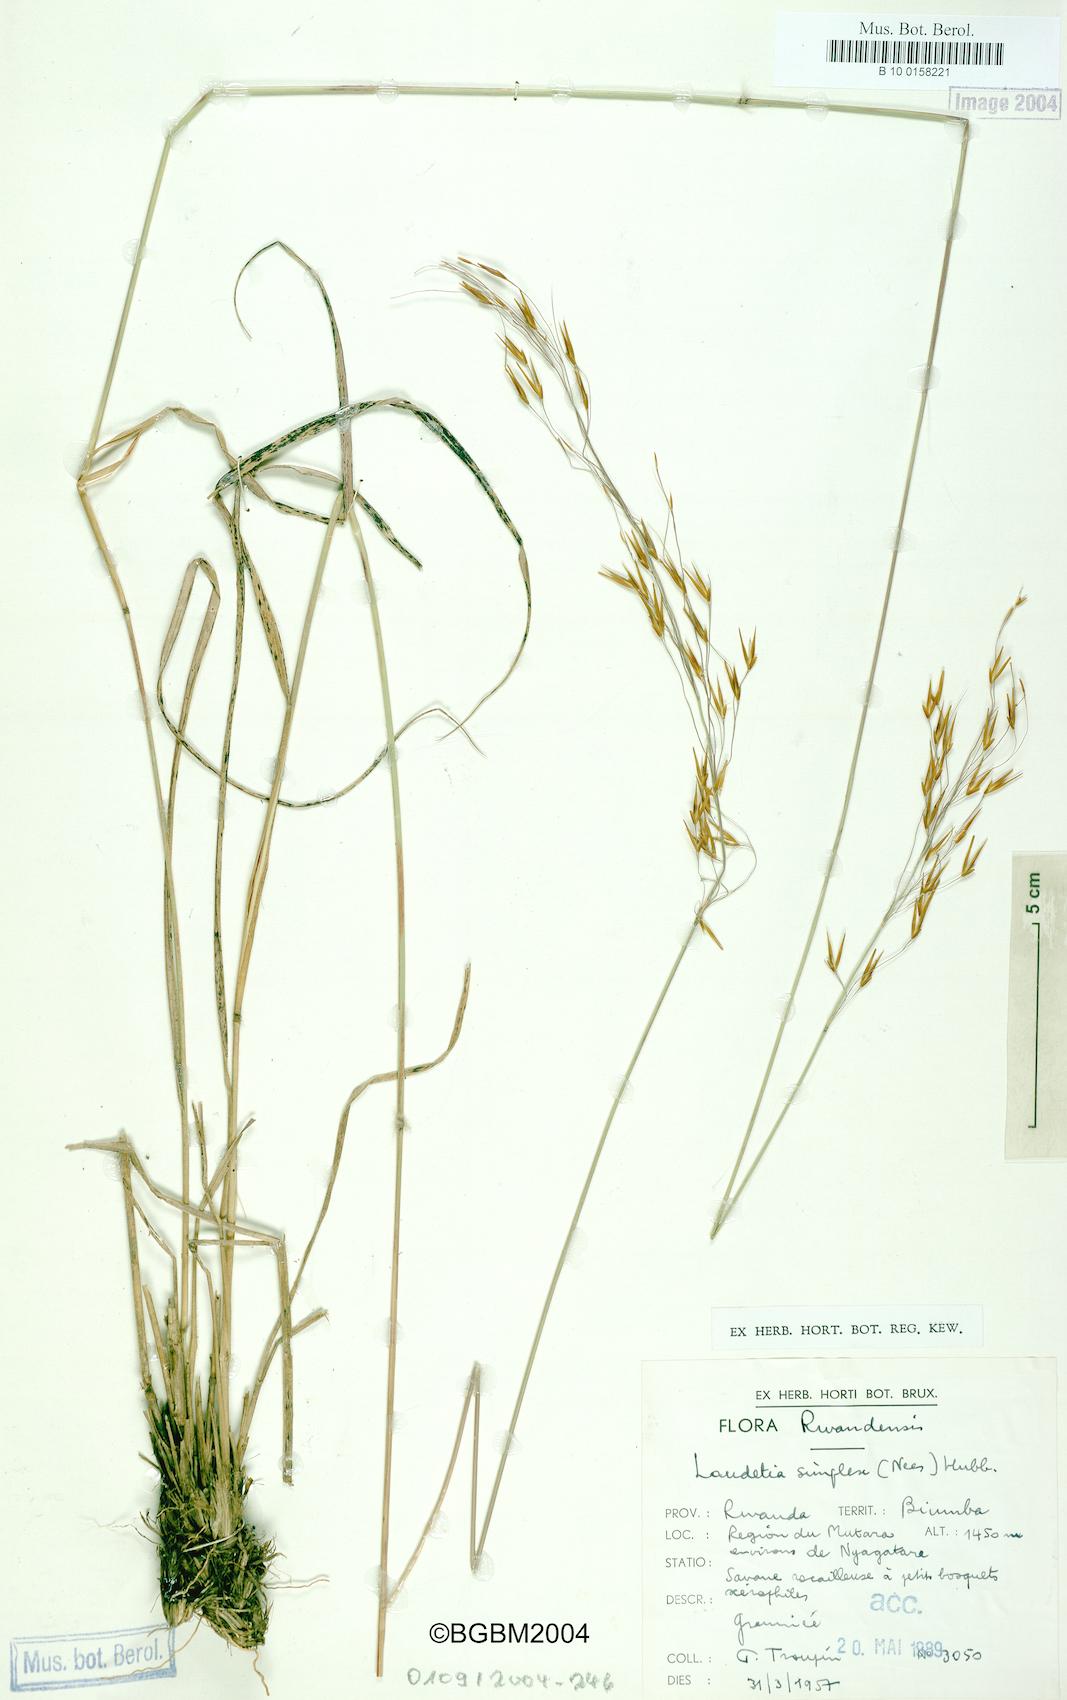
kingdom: Plantae
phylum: Tracheophyta
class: Liliopsida
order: Poales
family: Poaceae
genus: Loudetia
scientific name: Loudetia simplex
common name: Common russet grass
